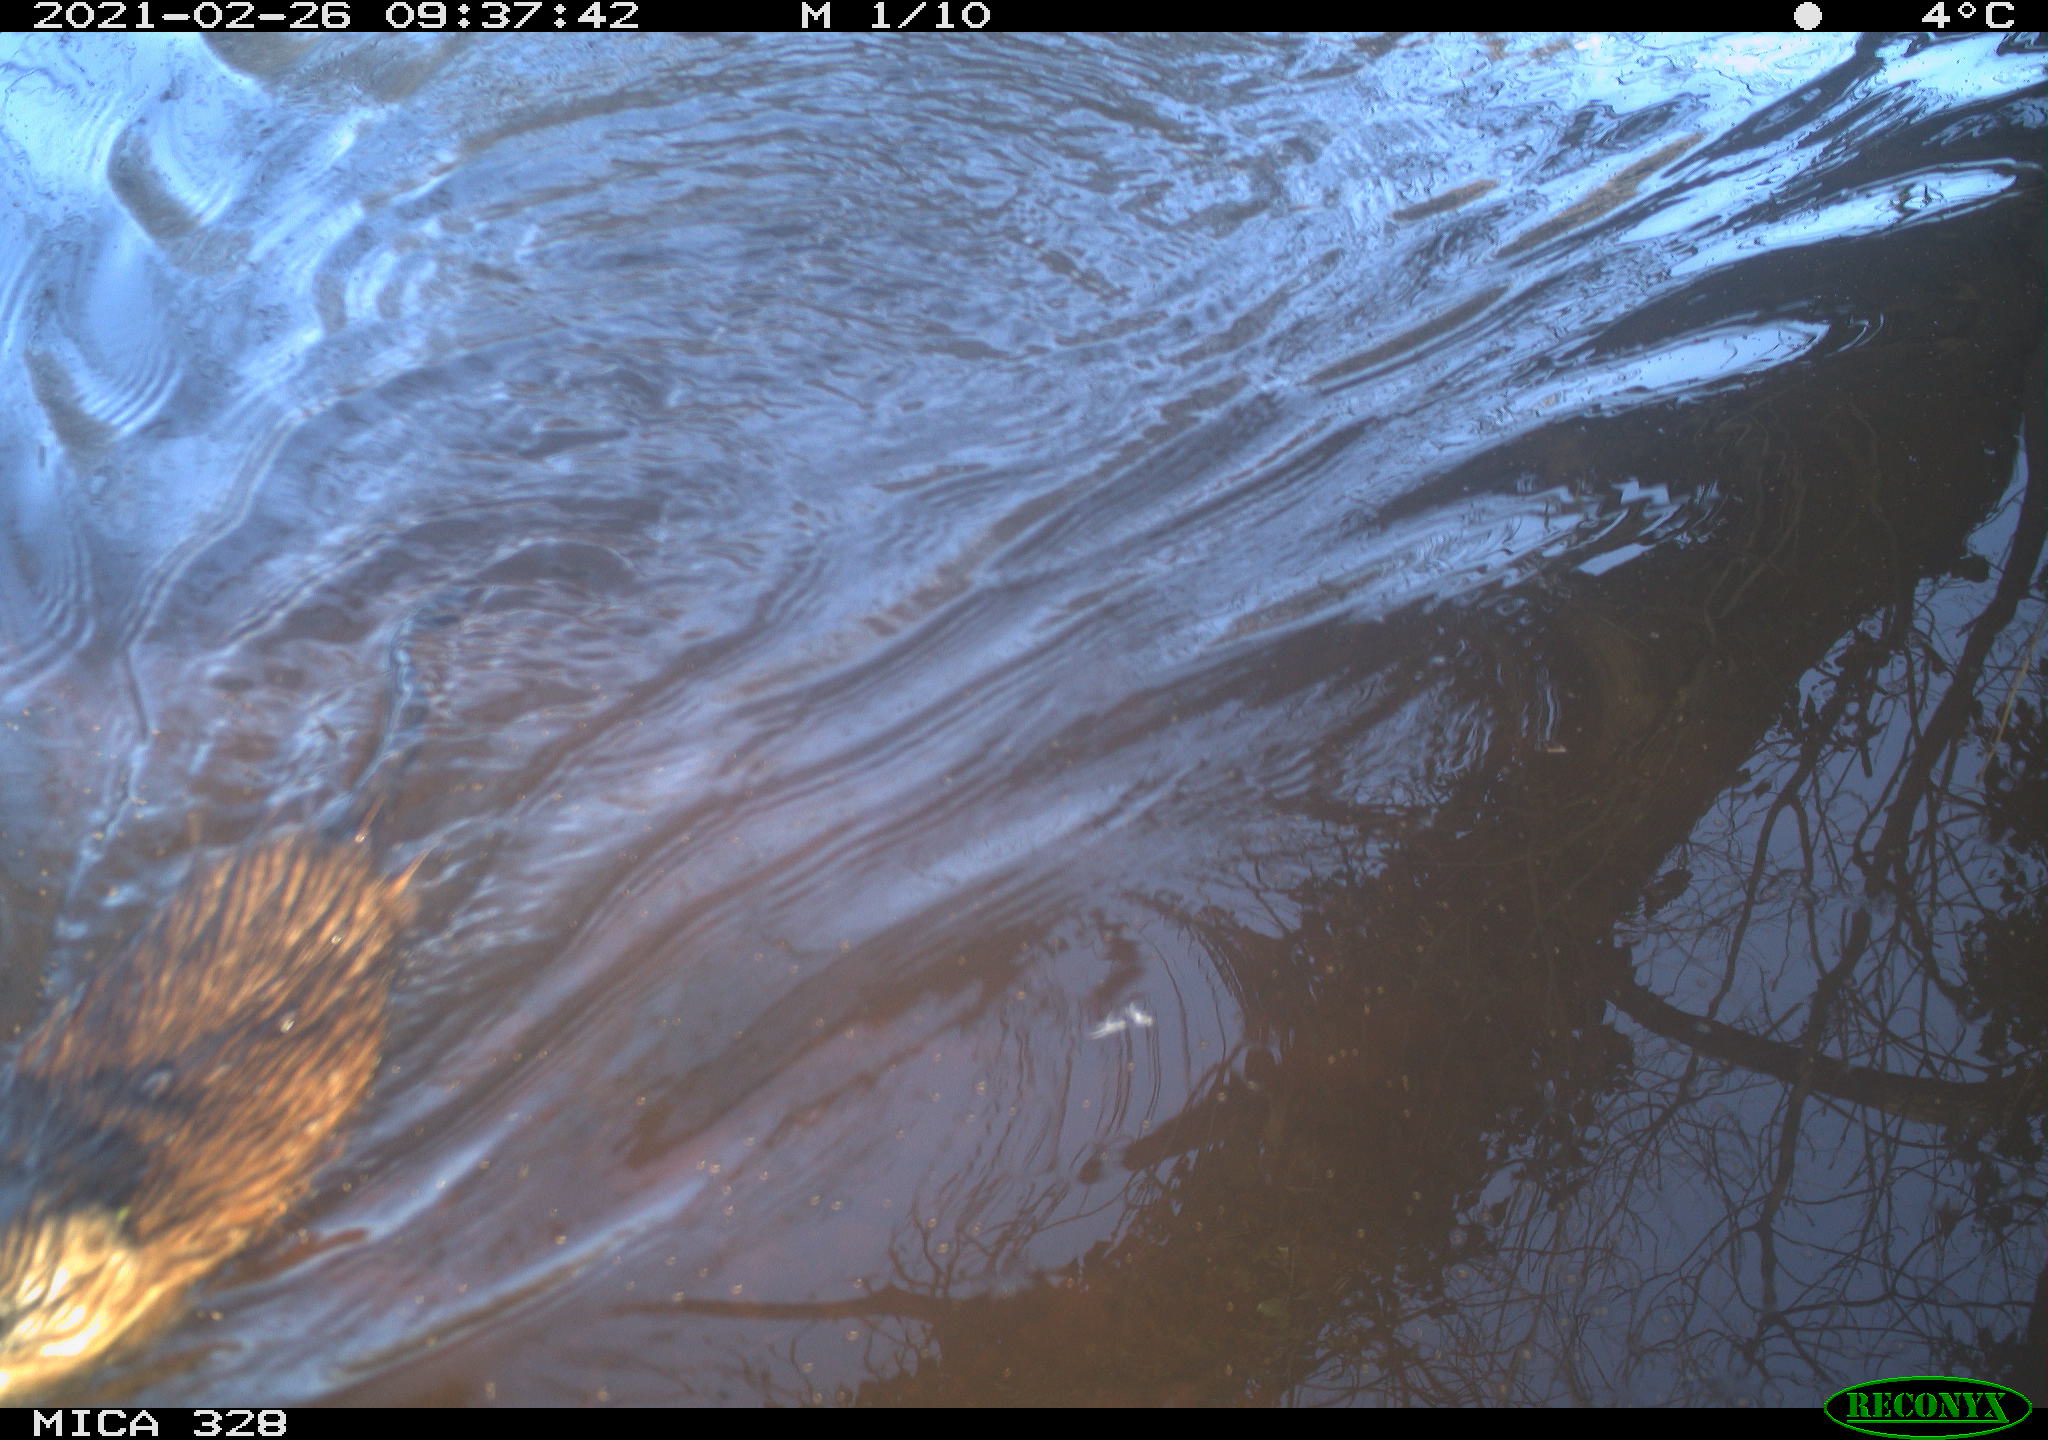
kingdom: Animalia
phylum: Chordata
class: Mammalia
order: Rodentia
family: Cricetidae
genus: Ondatra
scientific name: Ondatra zibethicus
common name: Muskrat
